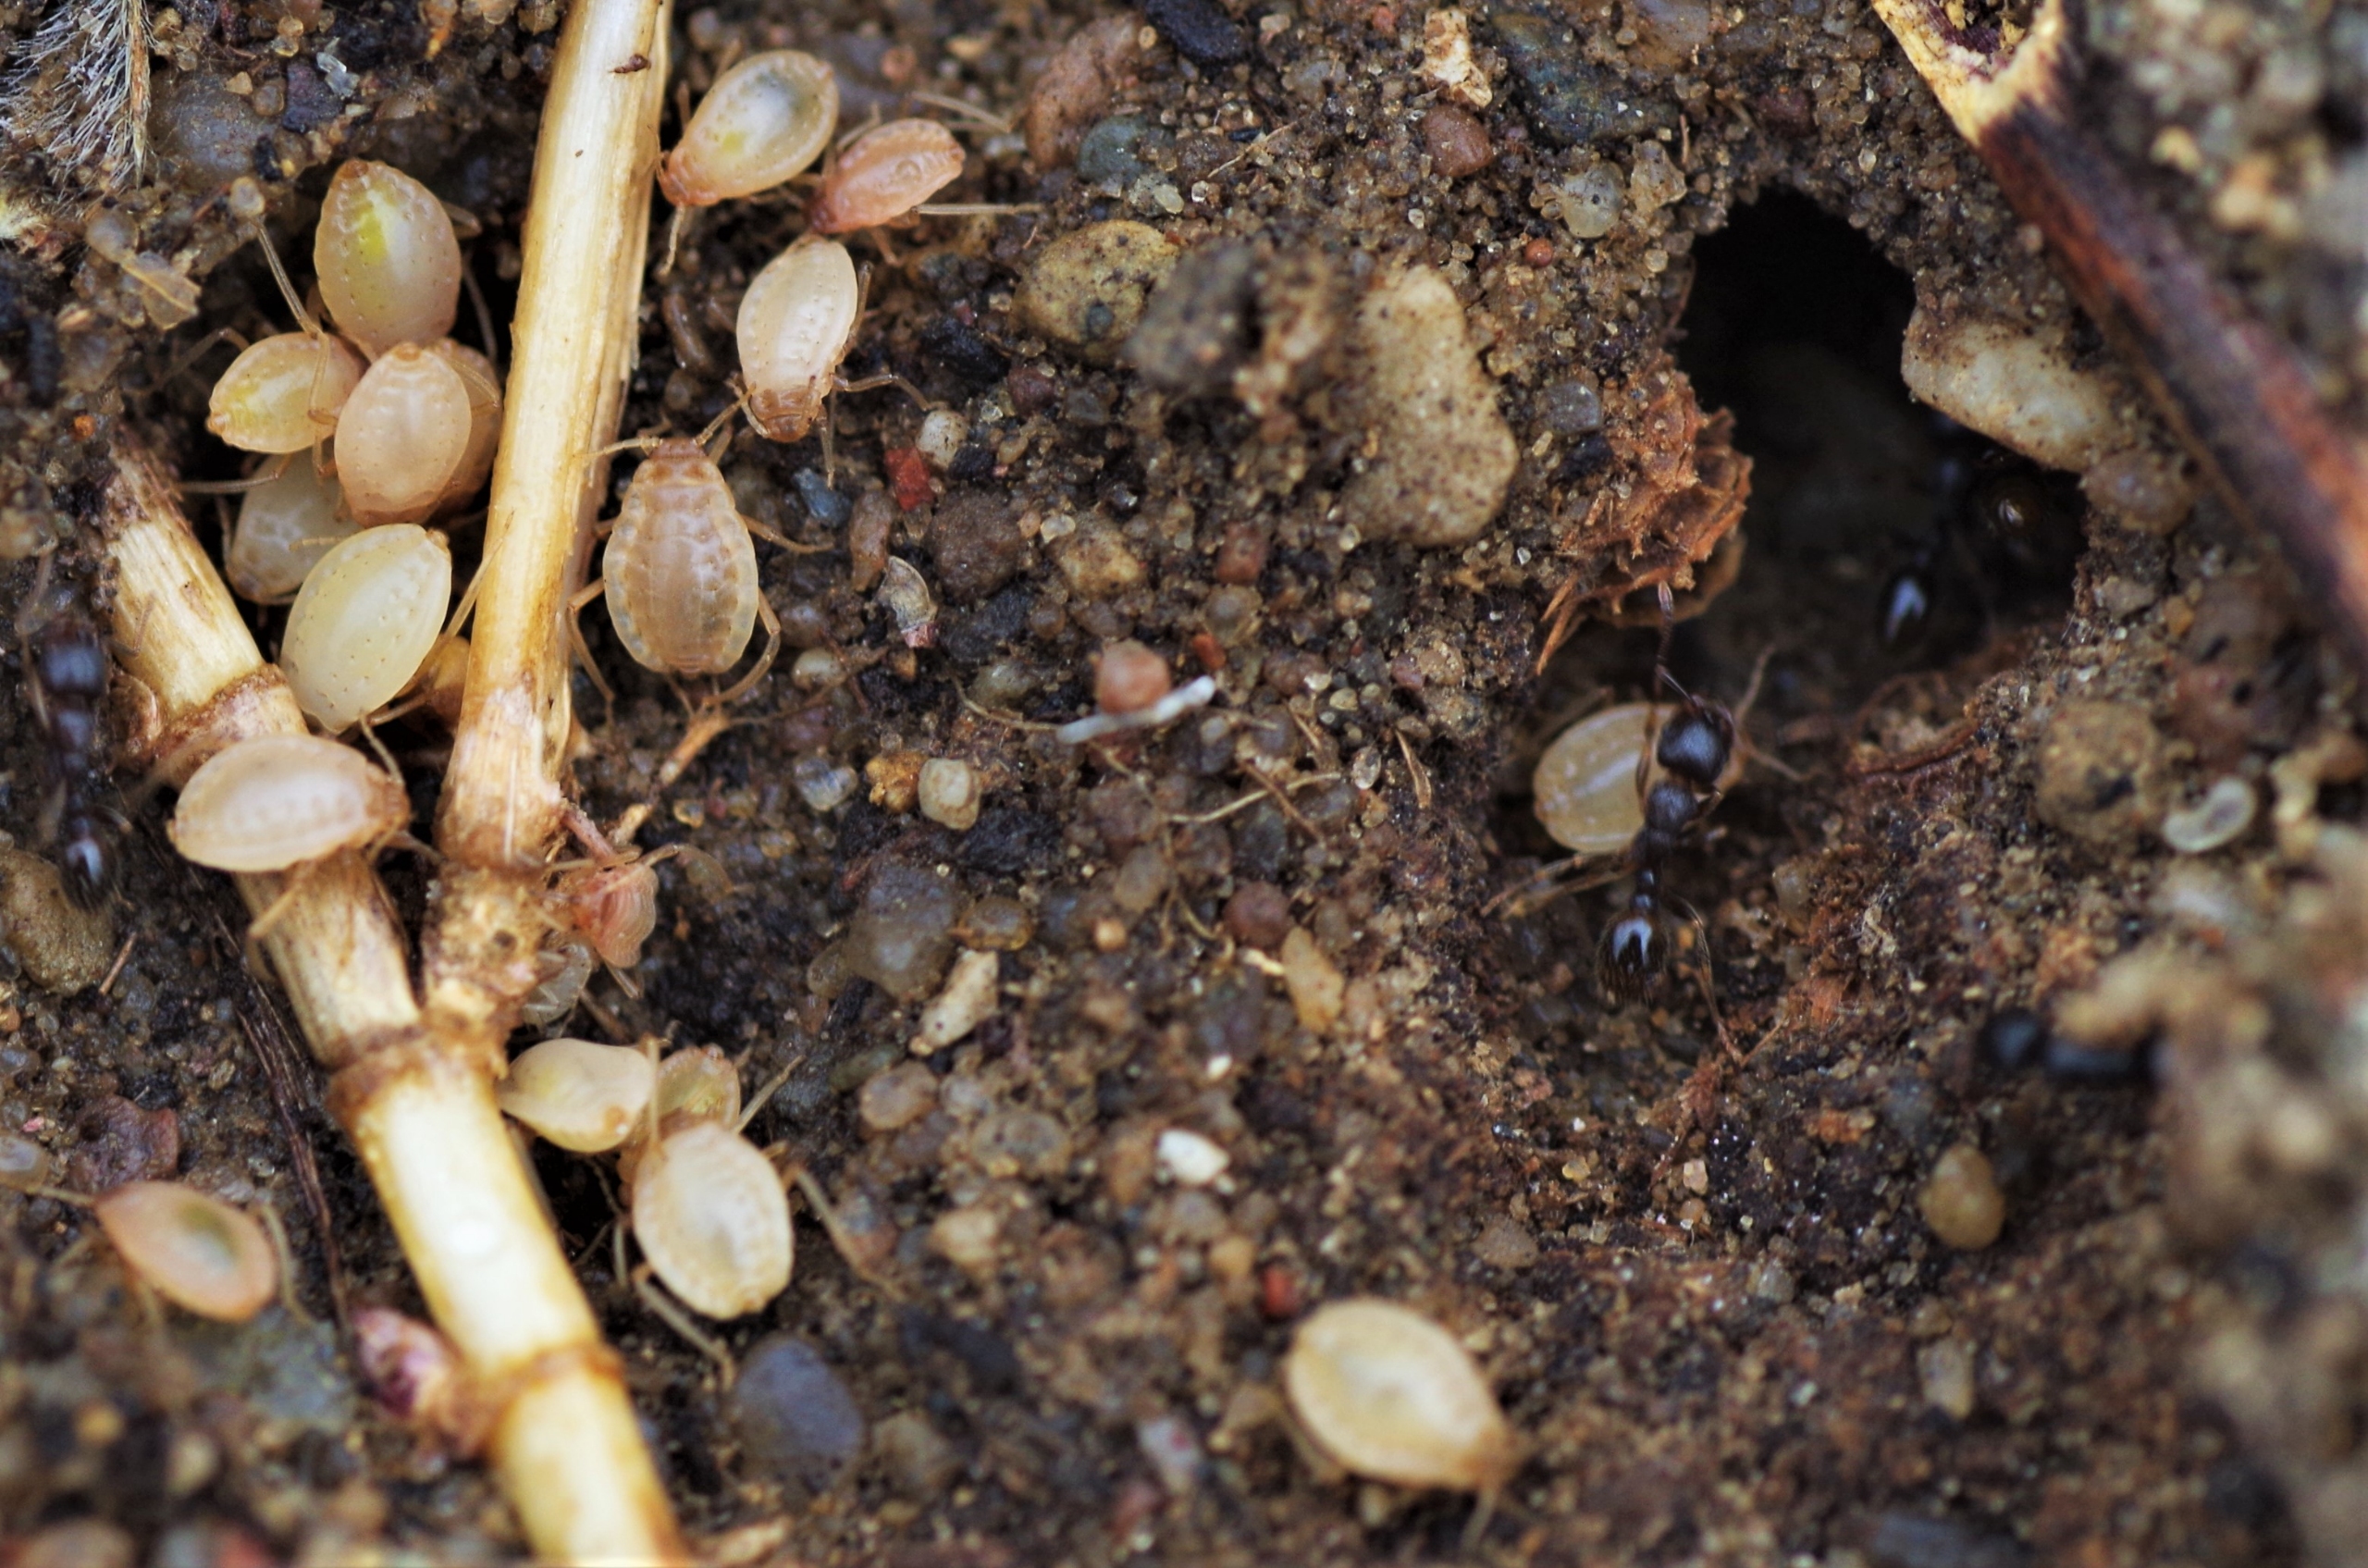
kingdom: Animalia
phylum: Arthropoda
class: Insecta
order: Hemiptera
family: Aphididae
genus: Paracletus
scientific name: Paracletus cimiciformis
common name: Vampyrrodlus
